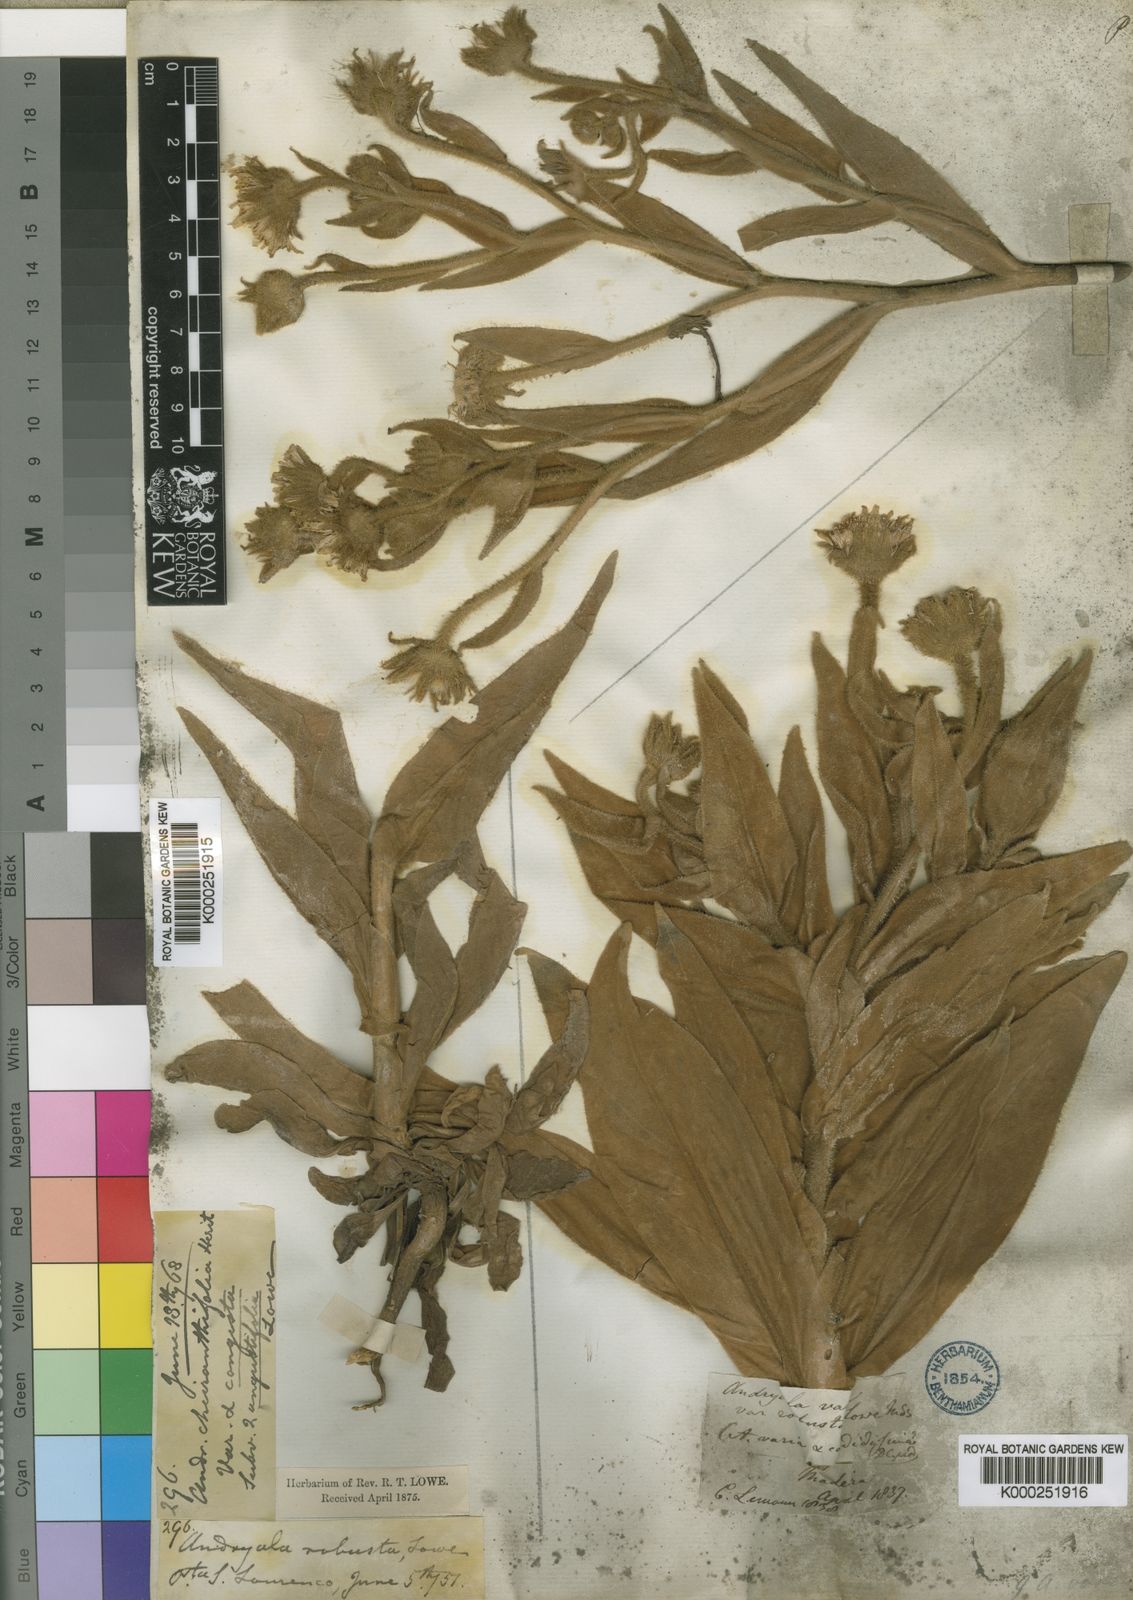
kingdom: Plantae
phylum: Tracheophyta
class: Magnoliopsida
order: Asterales
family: Asteraceae
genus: Andryala
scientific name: Andryala glandulosa
